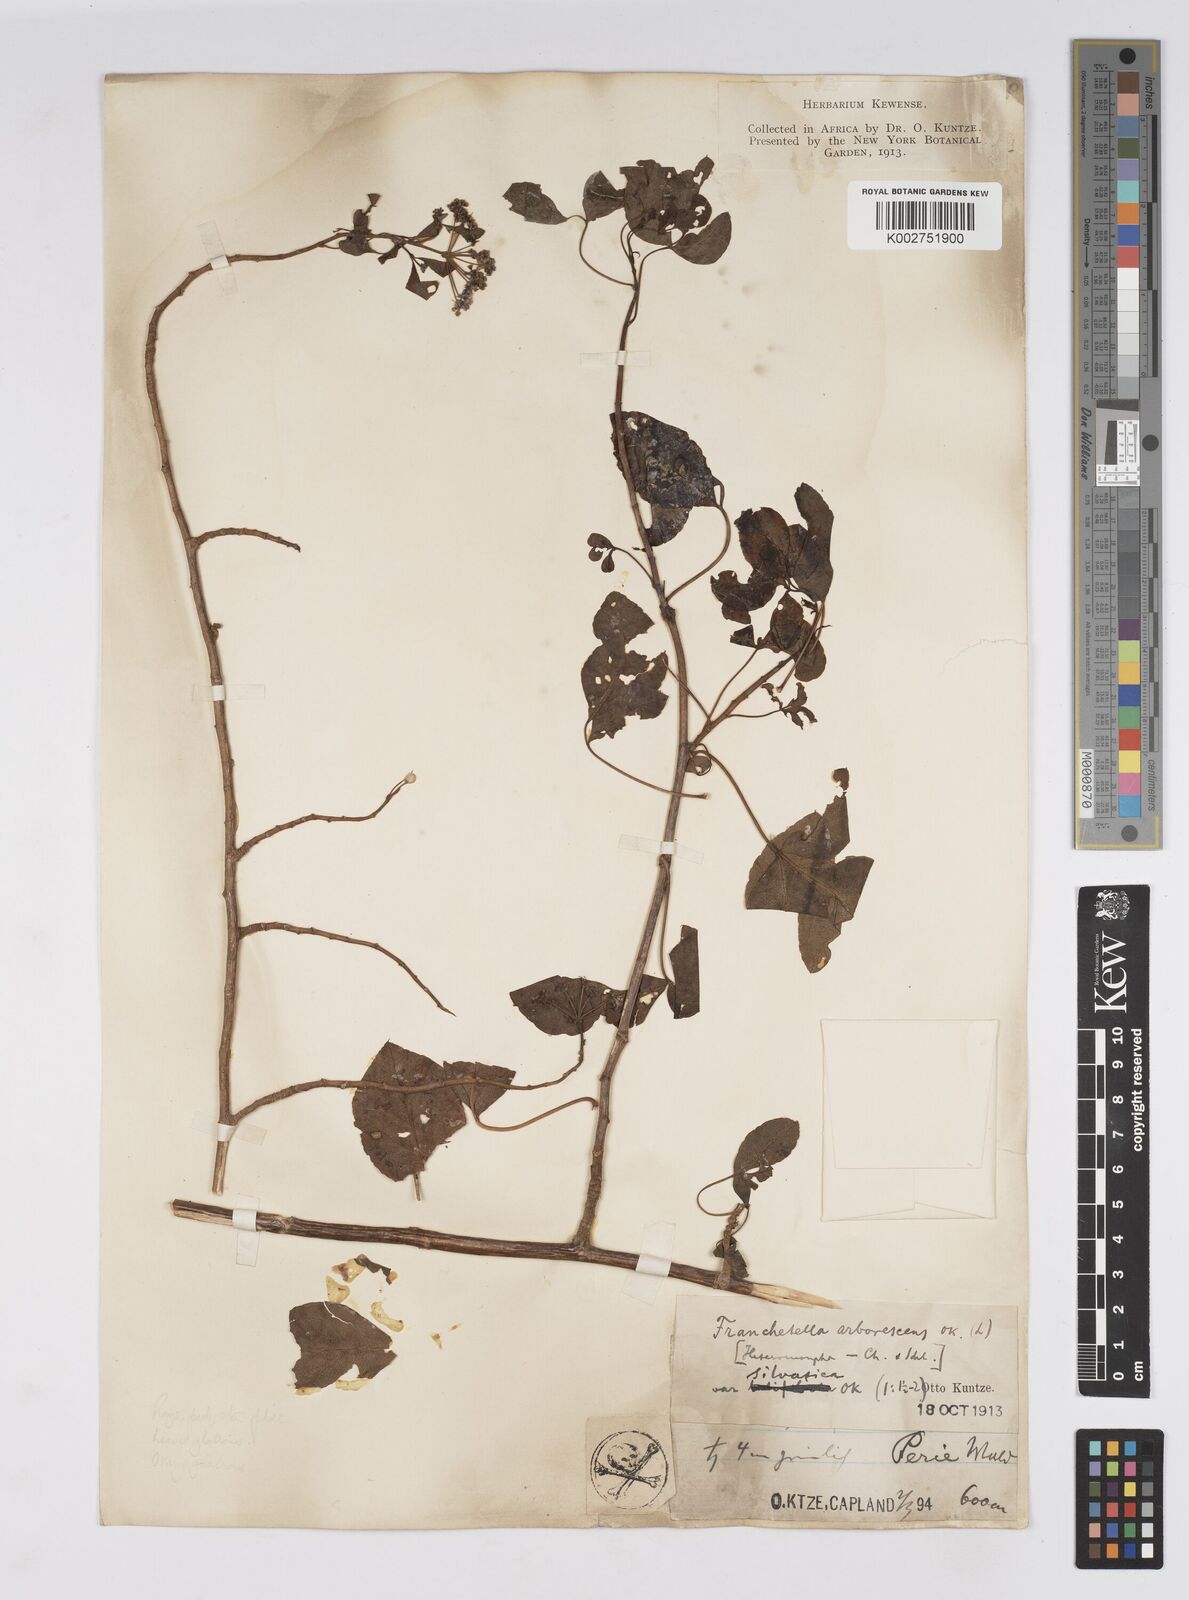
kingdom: Plantae
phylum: Tracheophyta
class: Magnoliopsida
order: Apiales
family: Apiaceae
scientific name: Apiaceae
